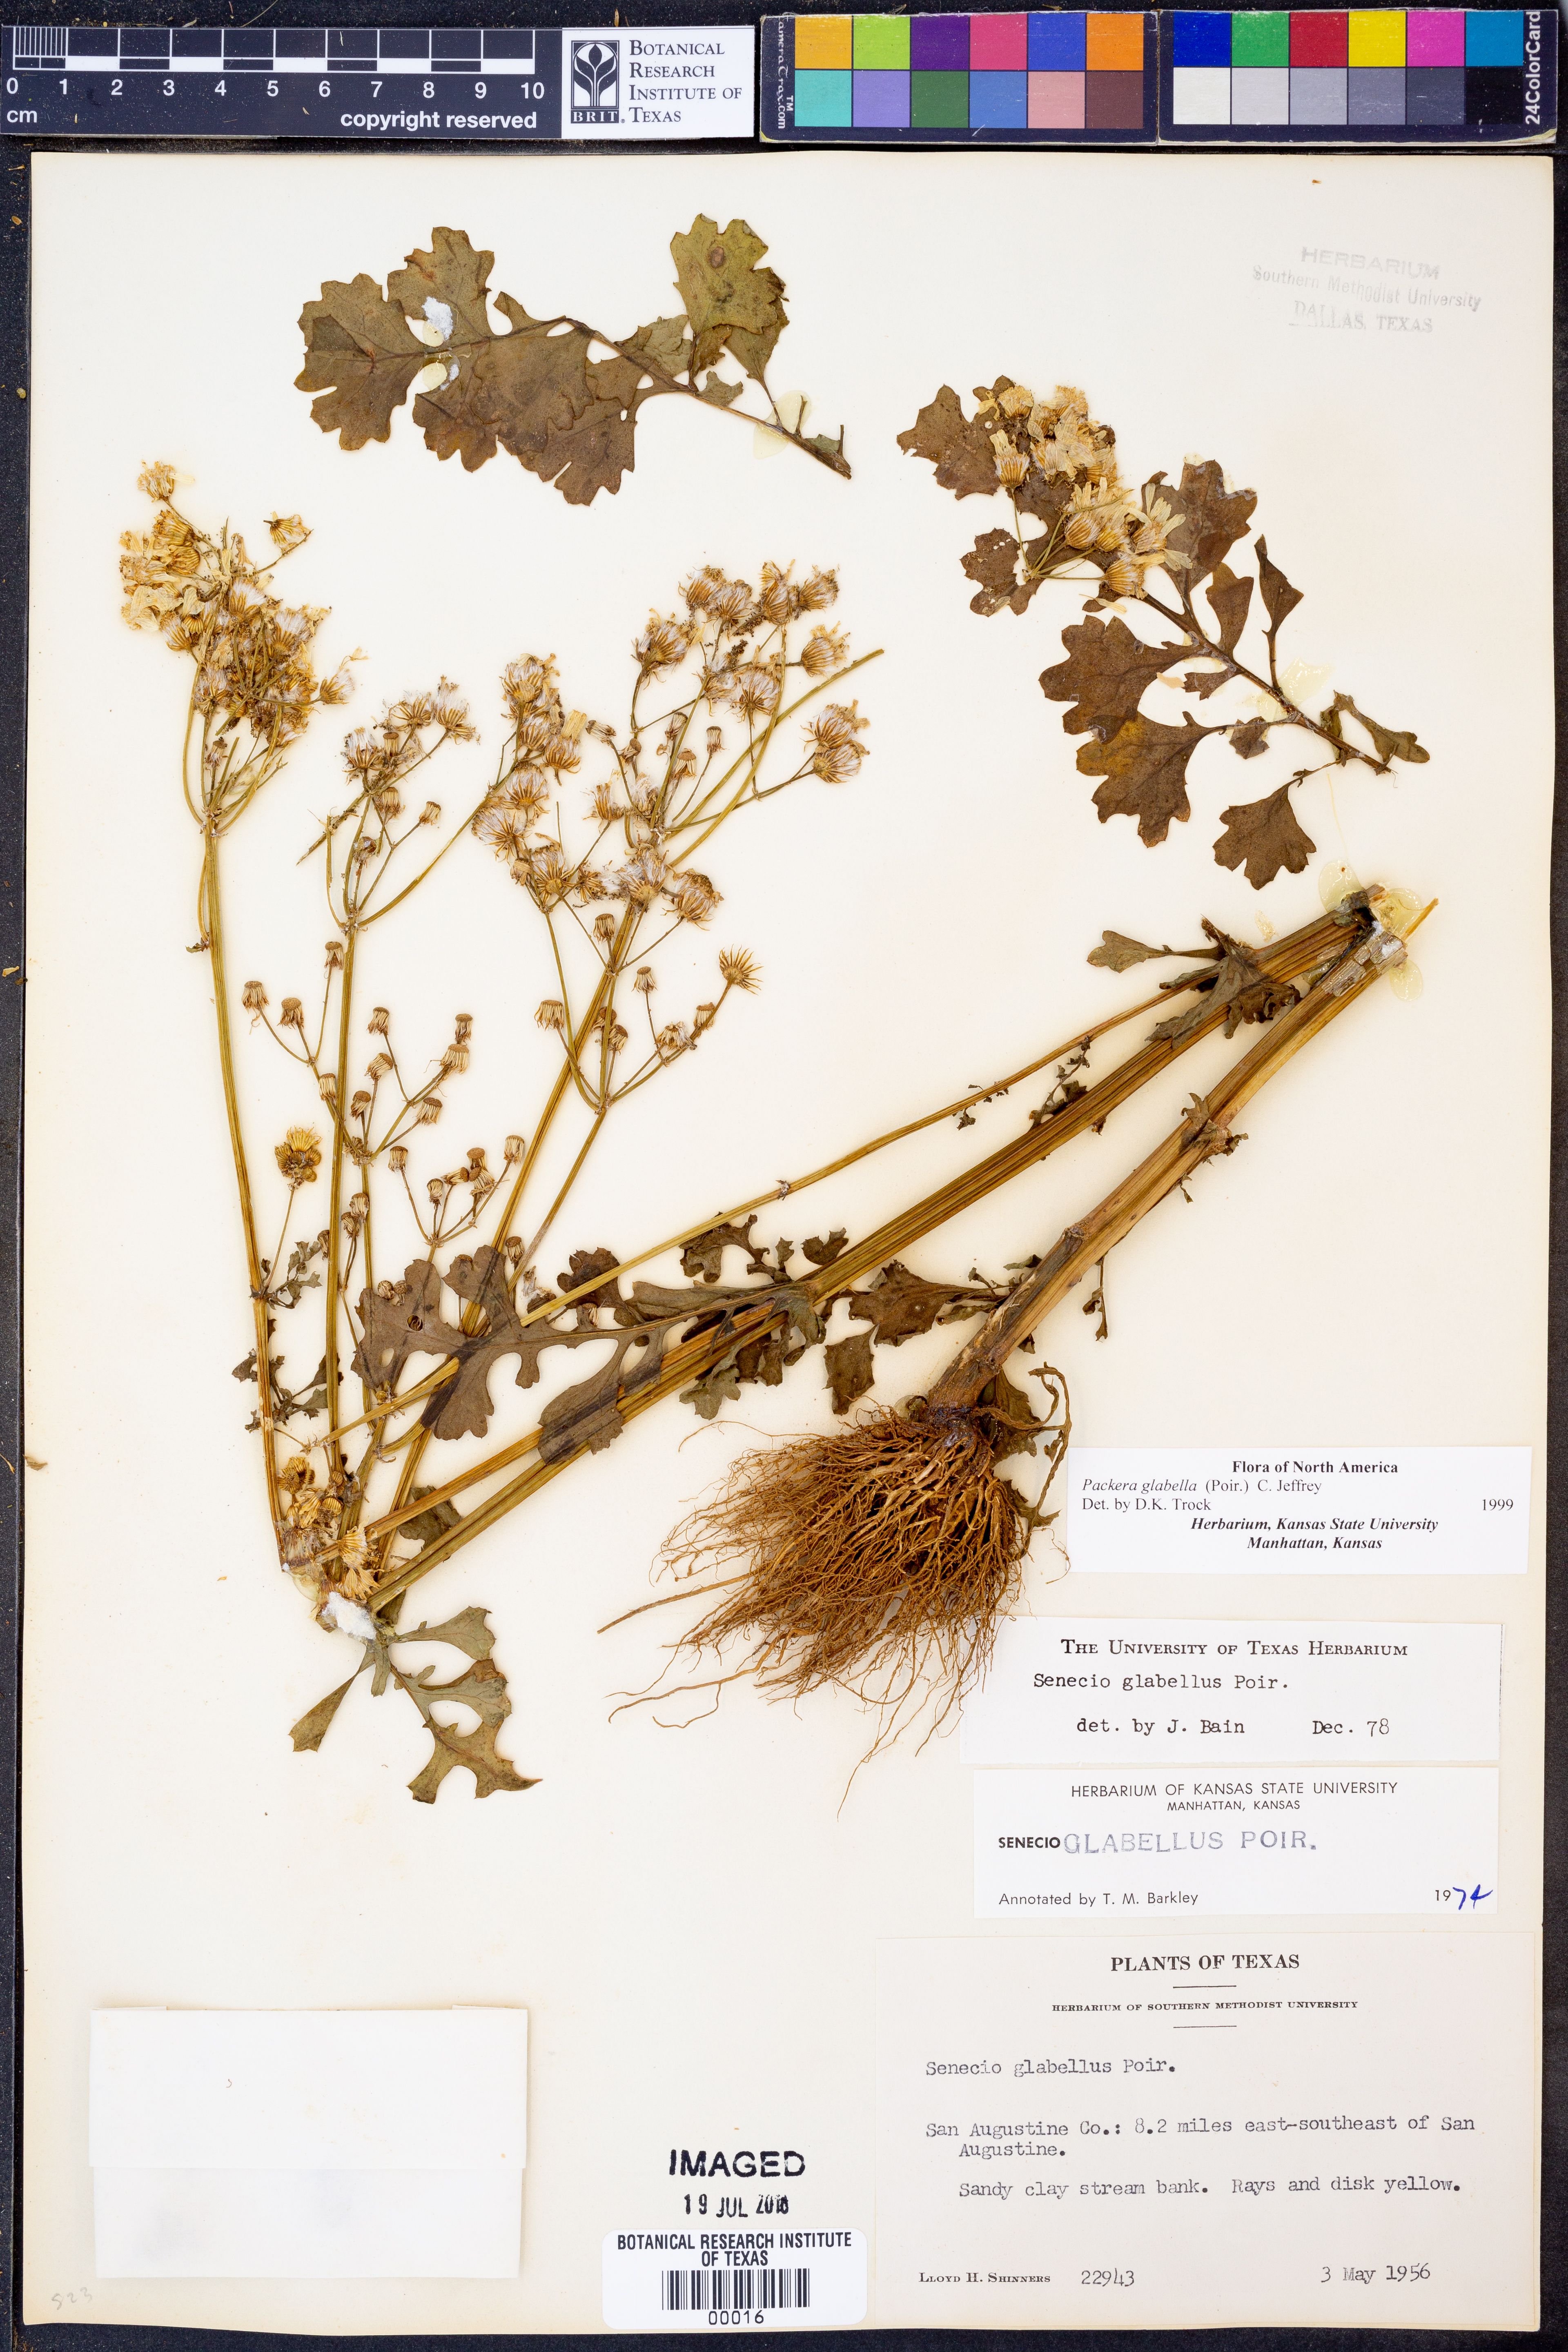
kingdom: Plantae
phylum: Tracheophyta
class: Magnoliopsida
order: Asterales
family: Asteraceae
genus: Packera
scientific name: Packera glabella
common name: Butterweed
